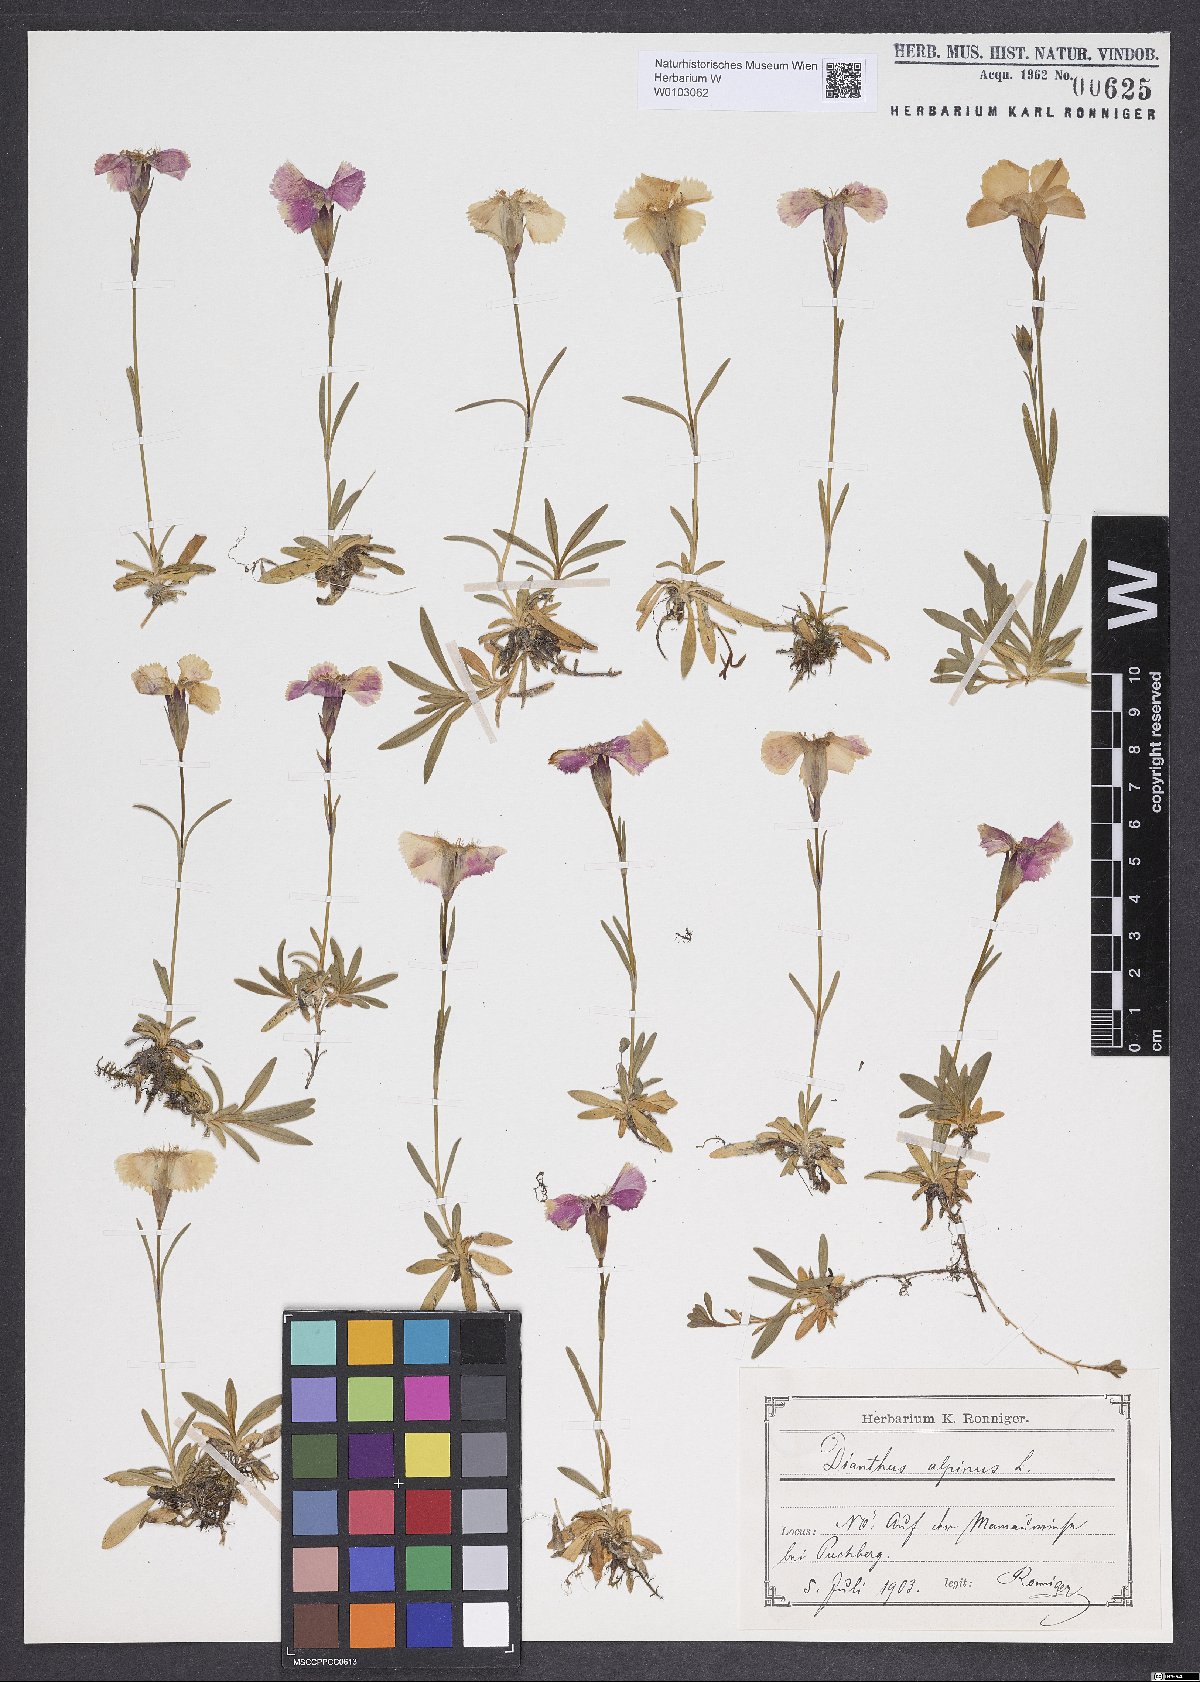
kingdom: Plantae
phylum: Tracheophyta
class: Magnoliopsida
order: Caryophyllales
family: Caryophyllaceae
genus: Dianthus
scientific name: Dianthus alpinus
